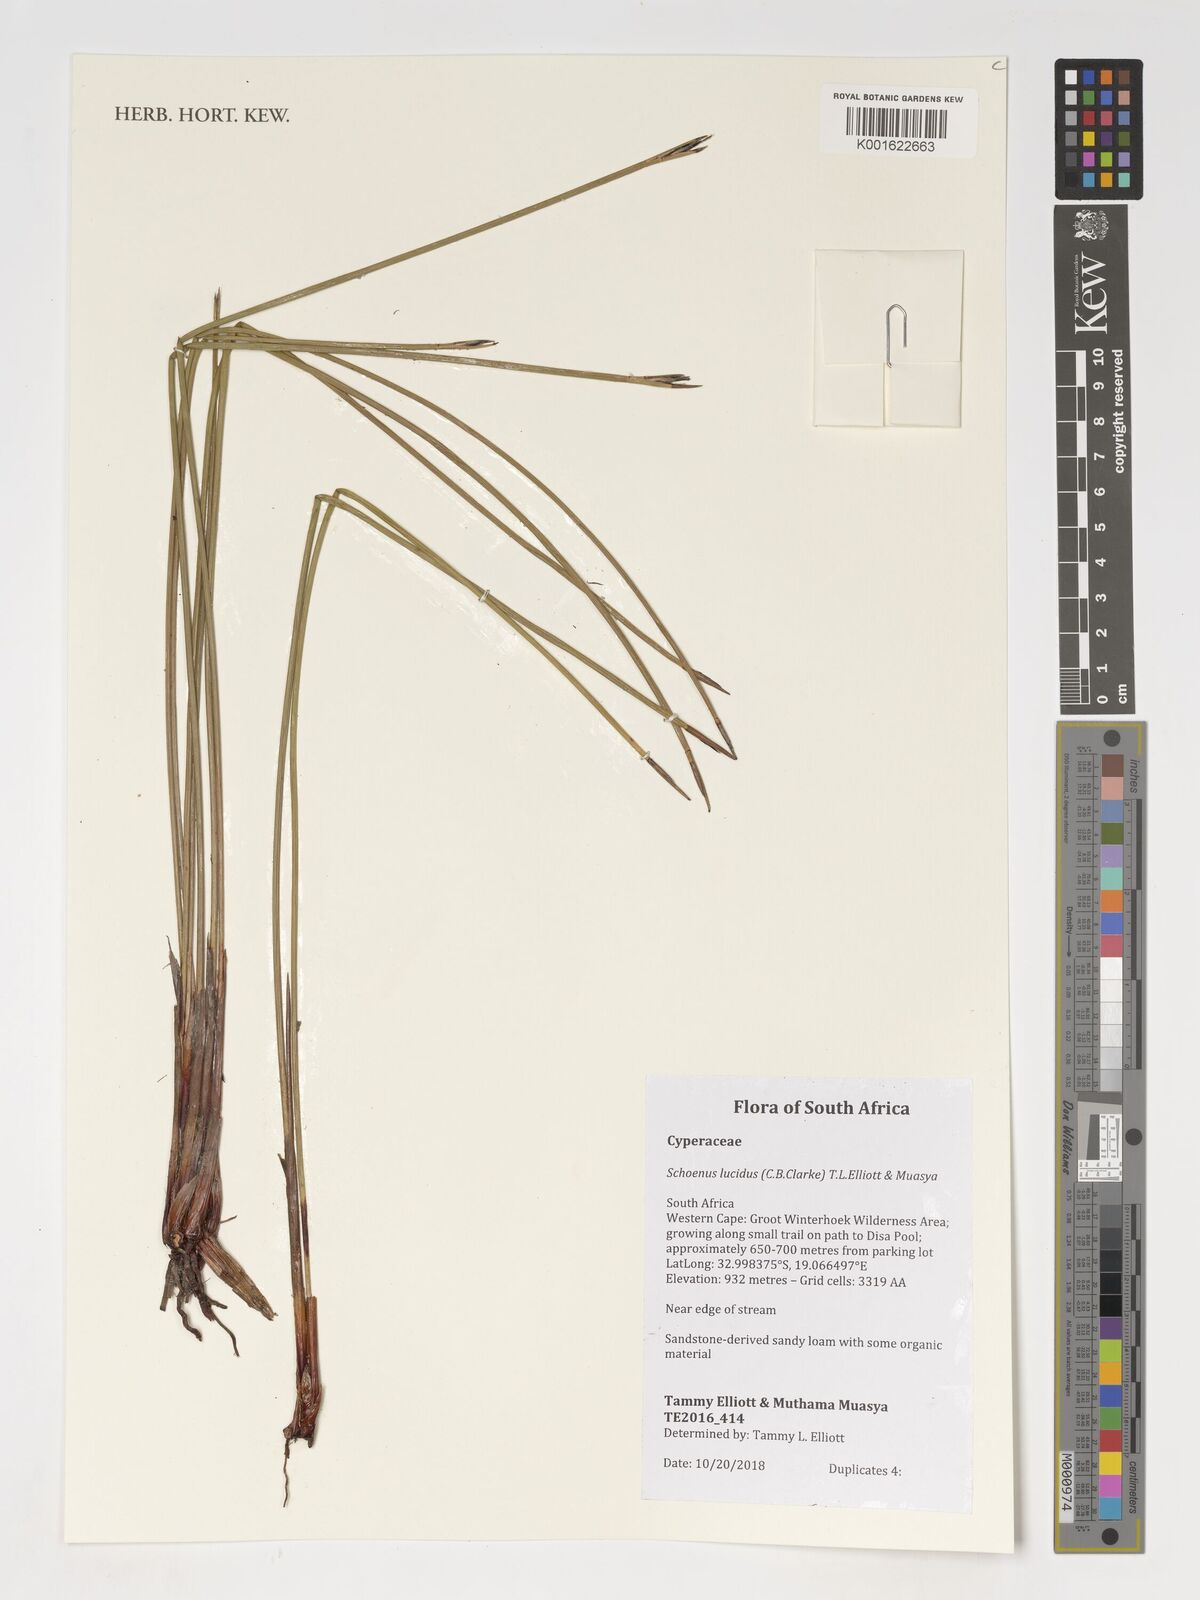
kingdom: Plantae
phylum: Tracheophyta
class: Liliopsida
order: Poales
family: Cyperaceae
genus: Schoenus
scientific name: Schoenus lucidus
